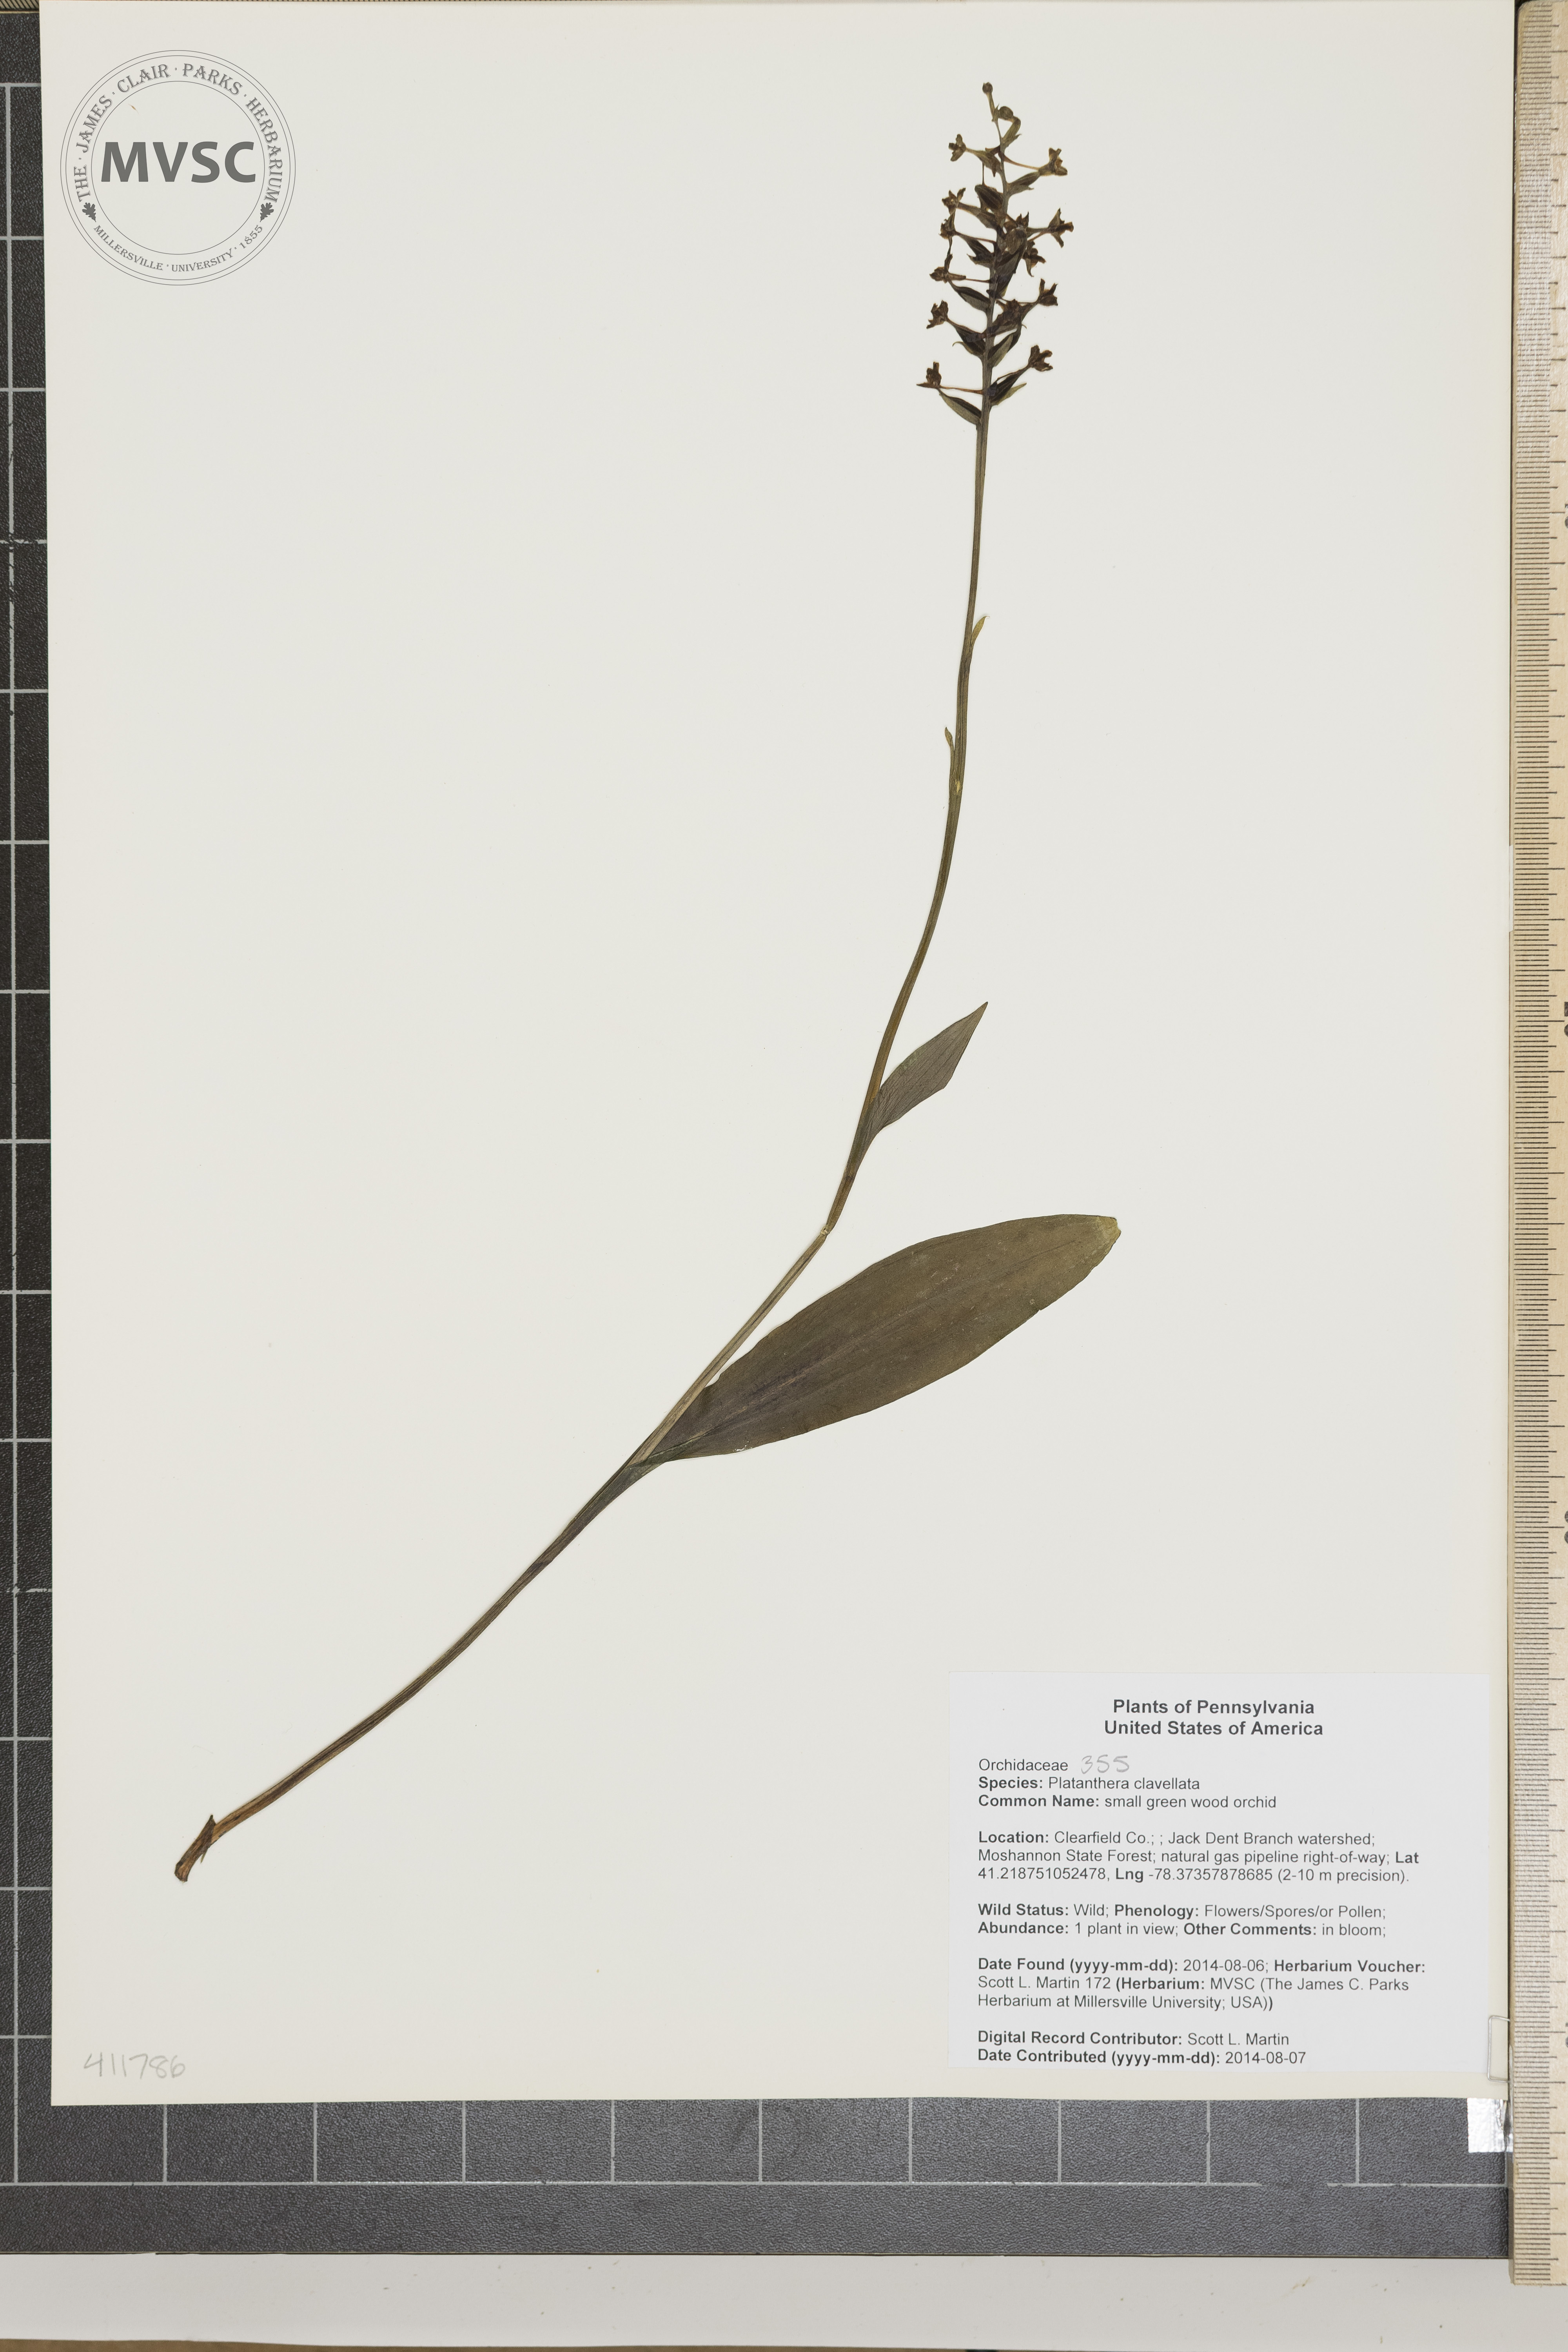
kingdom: Plantae
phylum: Tracheophyta
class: Liliopsida
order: Asparagales
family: Orchidaceae
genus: Platanthera
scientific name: Platanthera clavellata
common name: small green wood orchid
